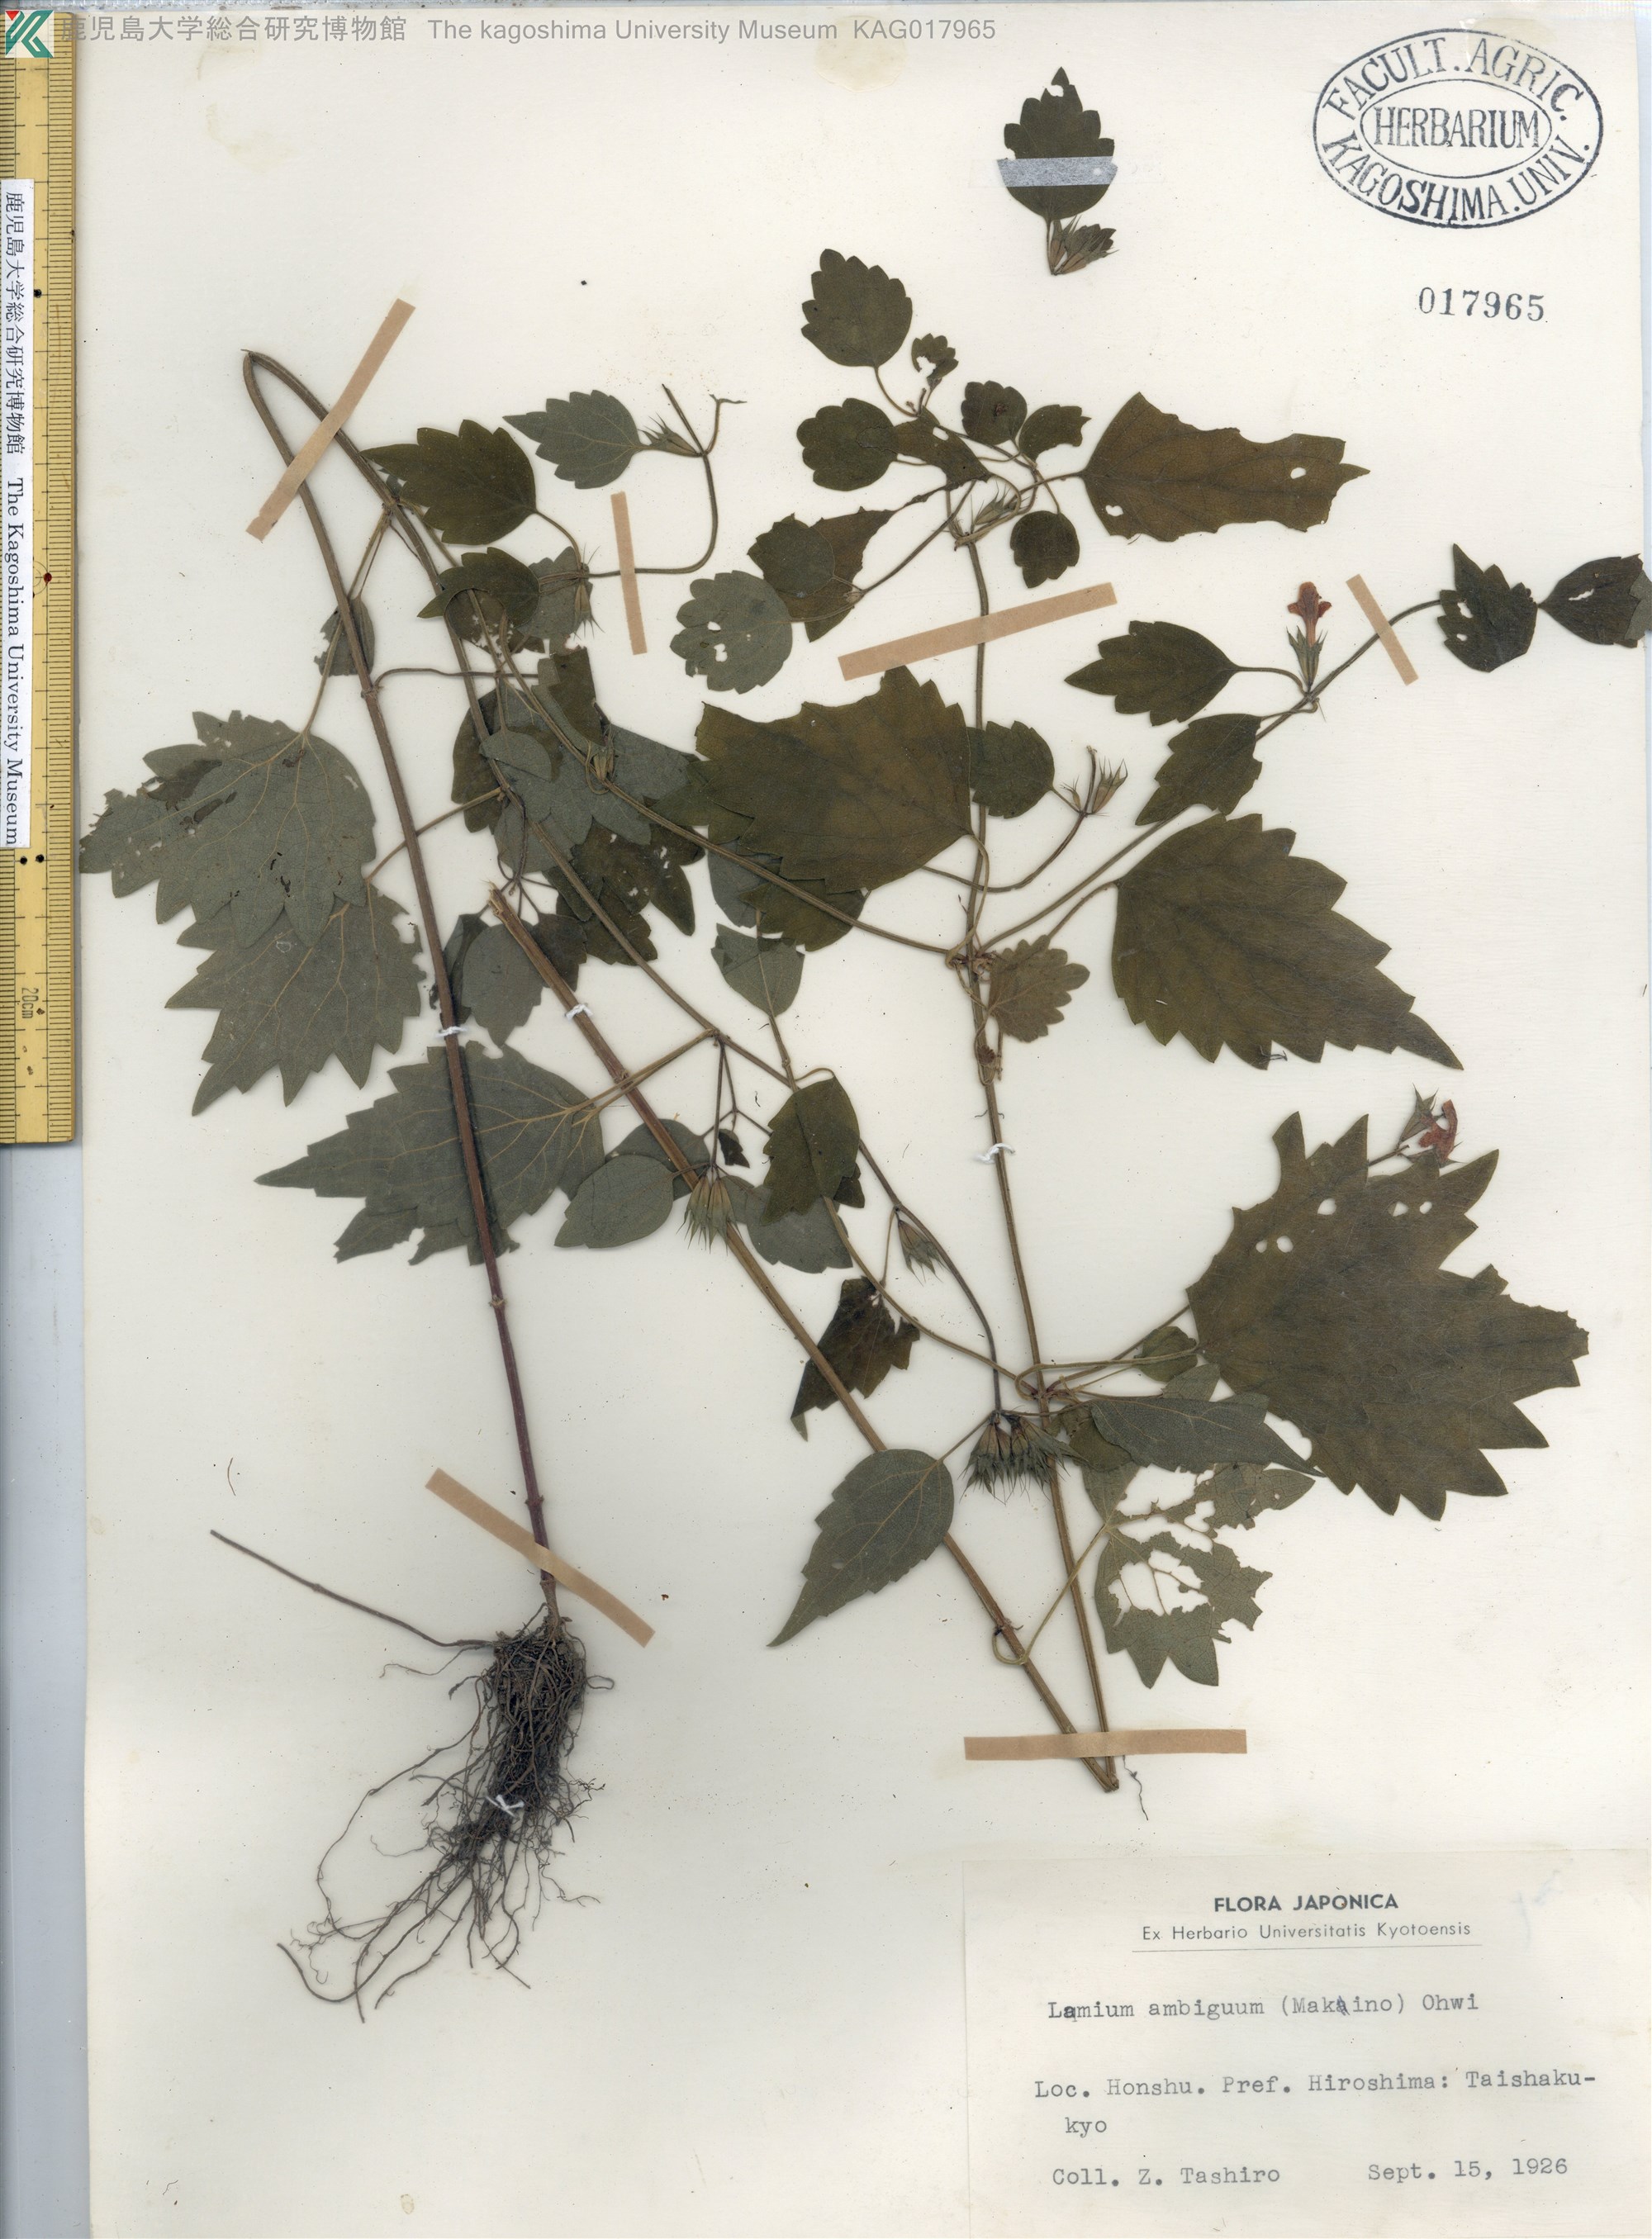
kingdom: Plantae
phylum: Tracheophyta
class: Magnoliopsida
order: Lamiales
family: Lamiaceae
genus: Loxocalyx
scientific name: Loxocalyx ambiguus
